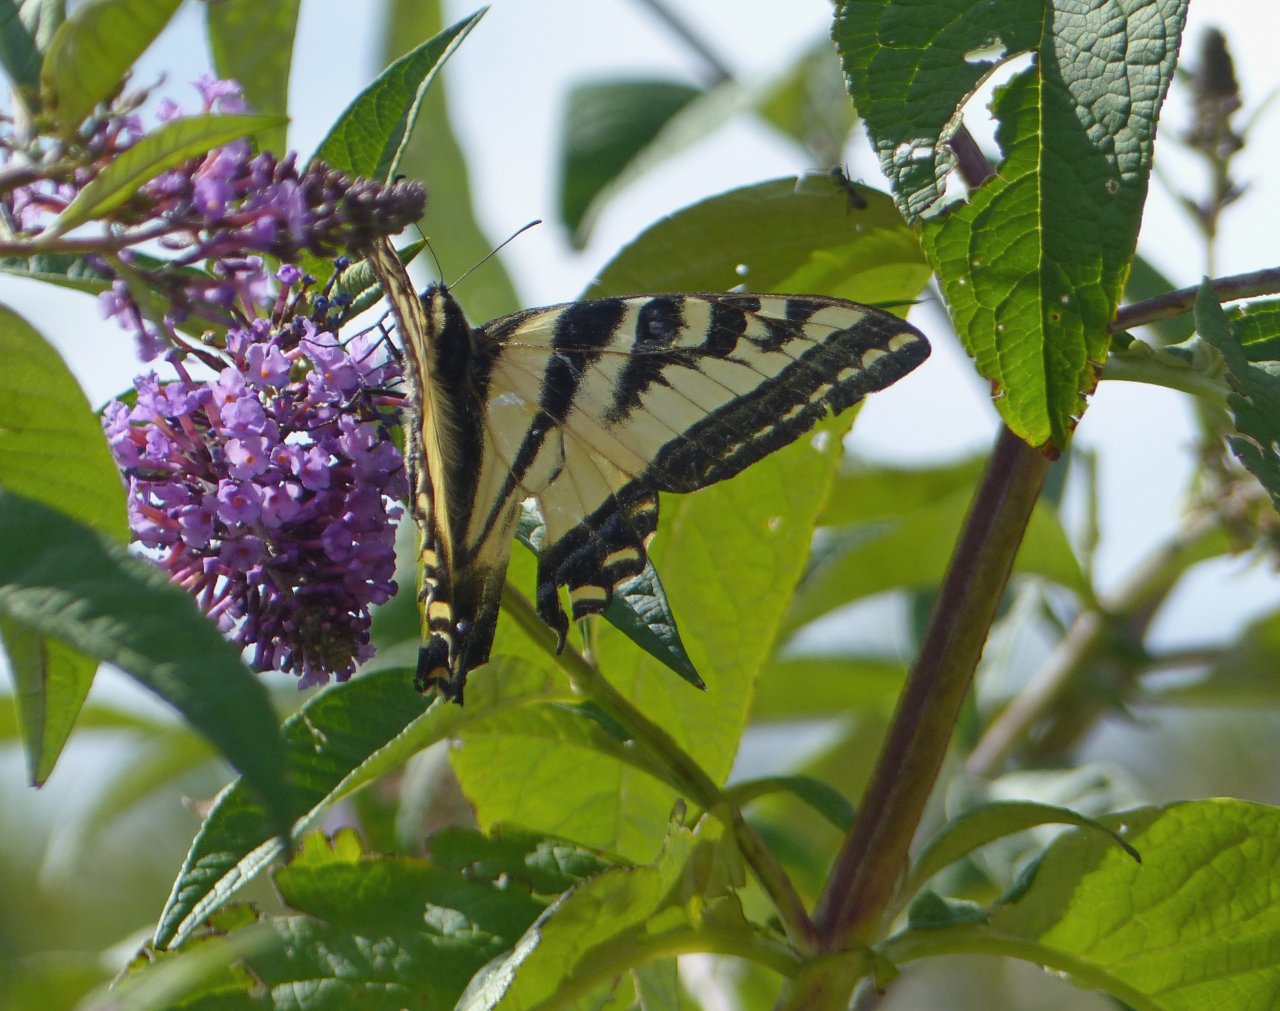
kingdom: Animalia
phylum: Arthropoda
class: Insecta
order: Lepidoptera
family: Papilionidae
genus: Pterourus
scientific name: Pterourus rutulus
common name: Western Tiger Swallowtail
